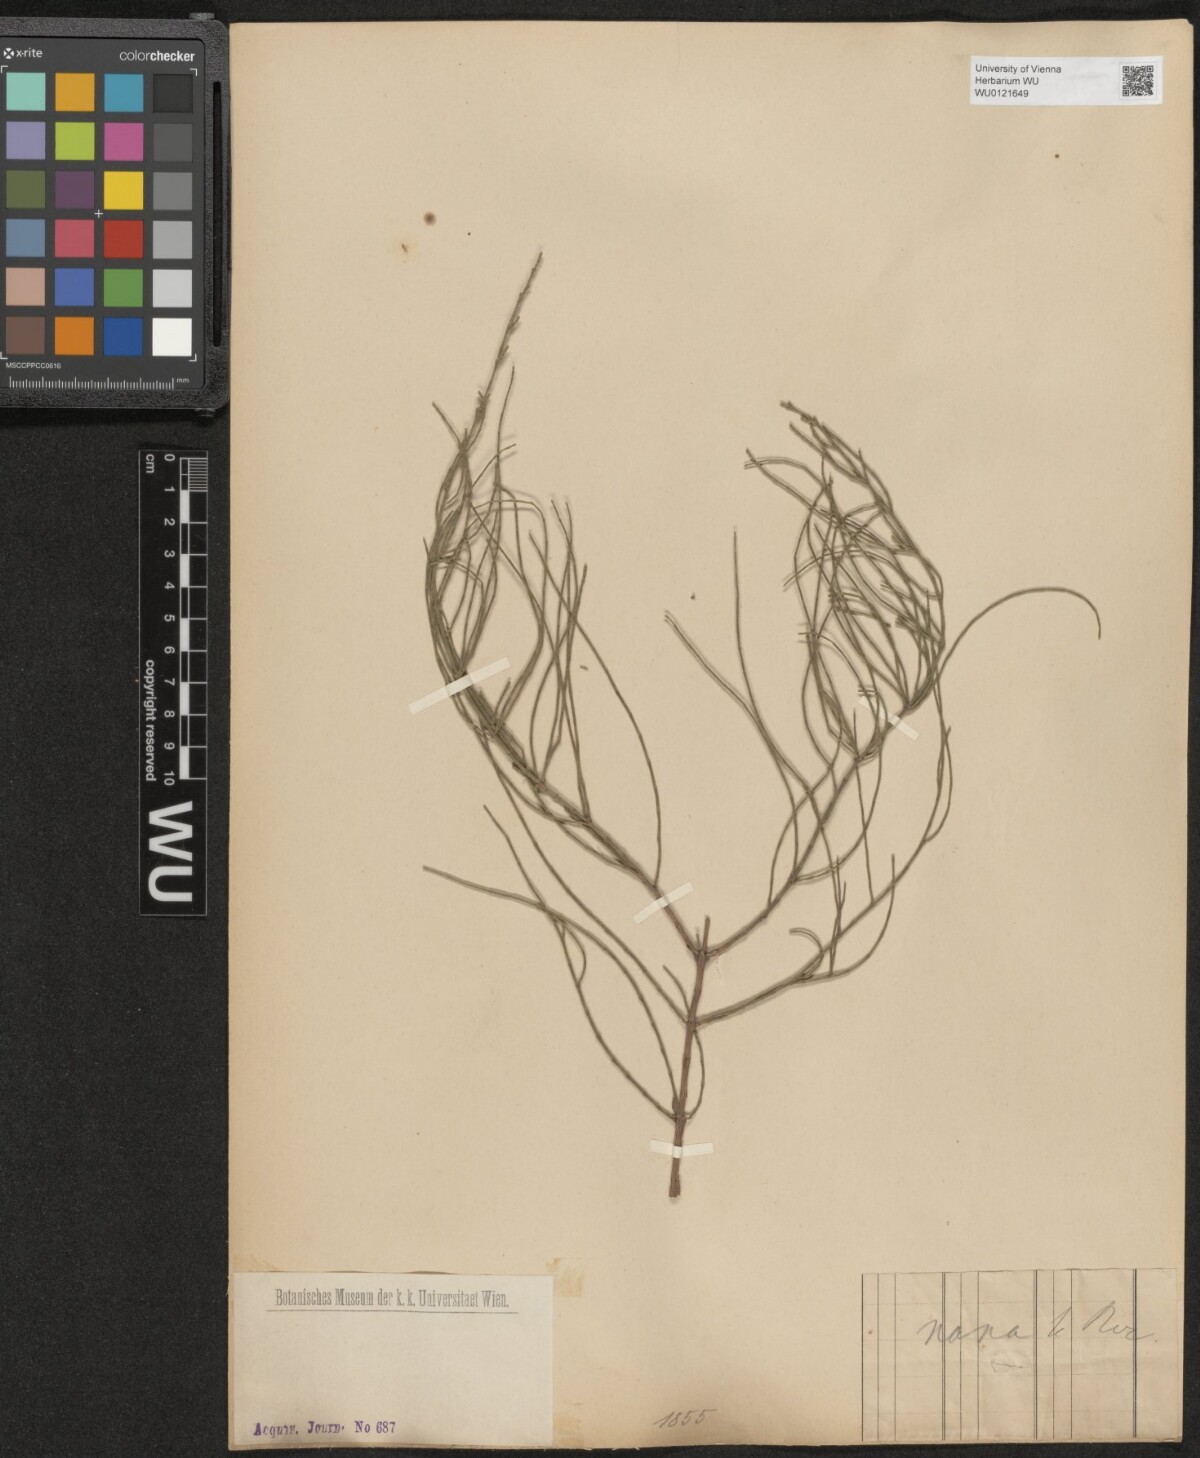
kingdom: Plantae
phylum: Tracheophyta
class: Magnoliopsida
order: Fagales
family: Casuarinaceae
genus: Allocasuarina
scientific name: Allocasuarina nana
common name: Stunted she-oak
